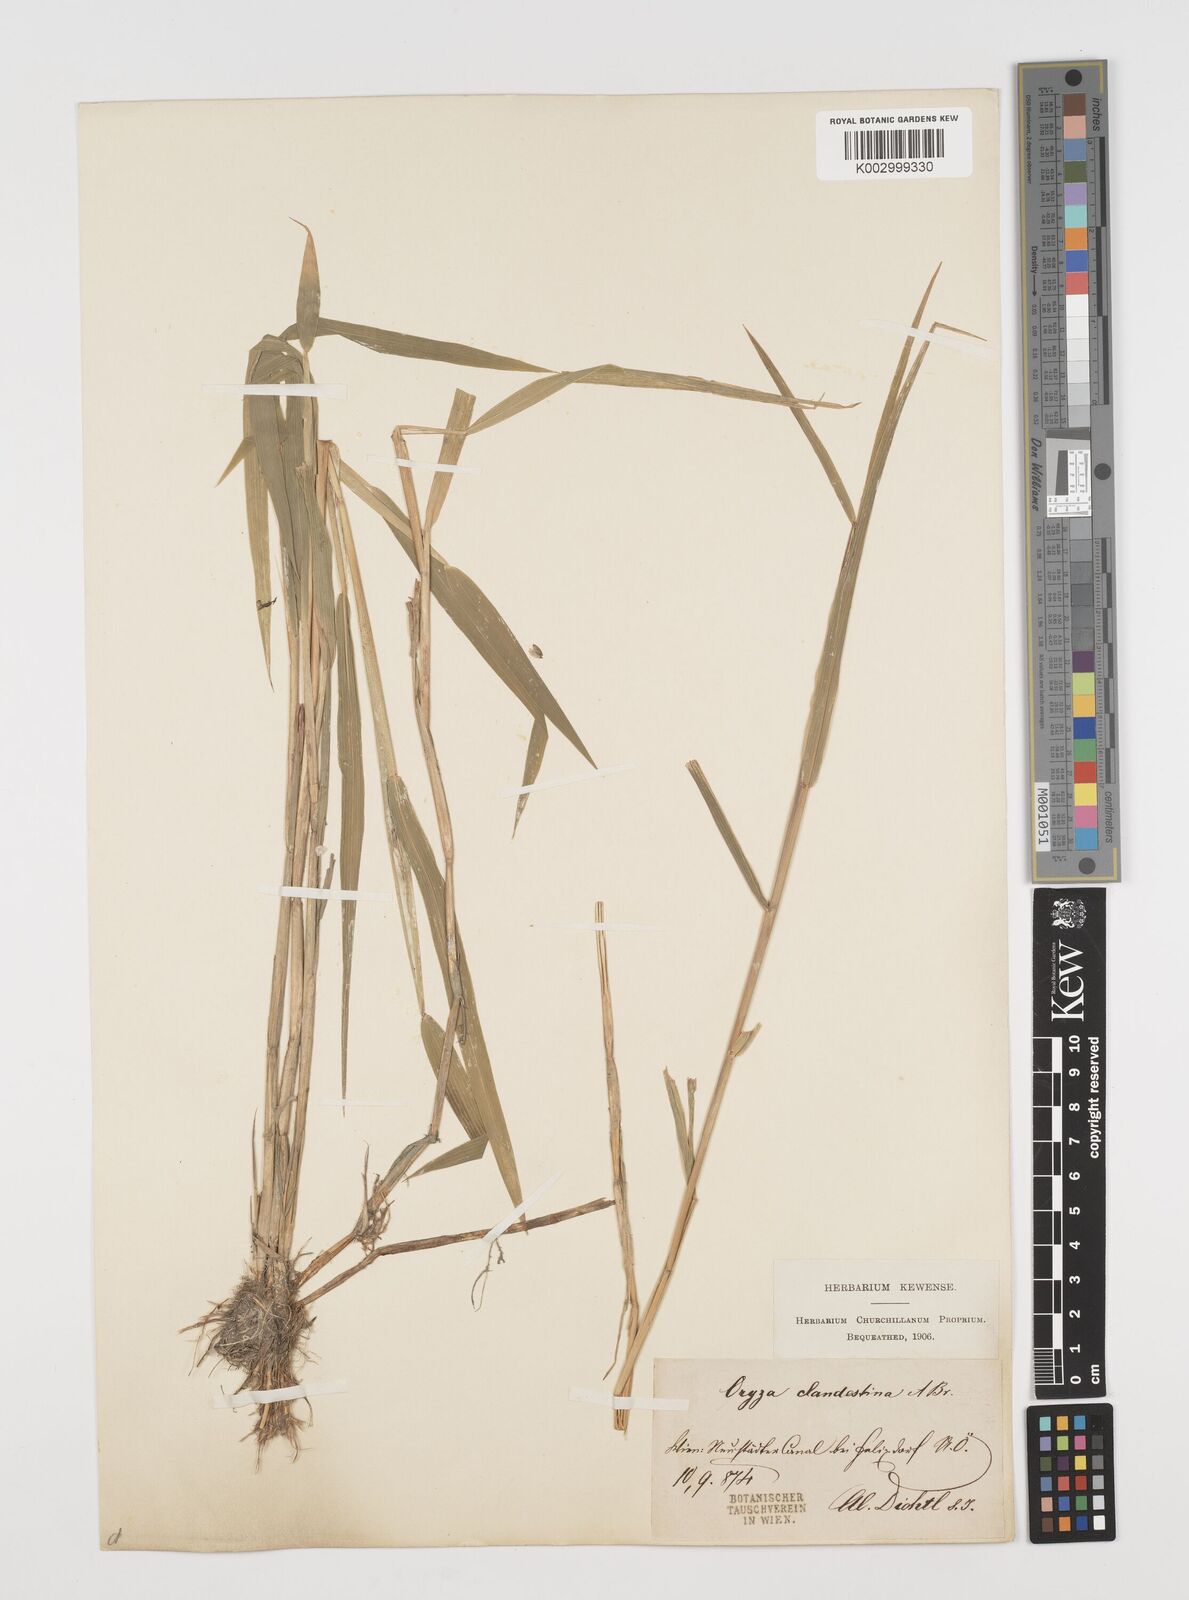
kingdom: Plantae
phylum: Tracheophyta
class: Liliopsida
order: Poales
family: Poaceae
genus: Leersia
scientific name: Leersia oryzoides
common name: Cut-grass
